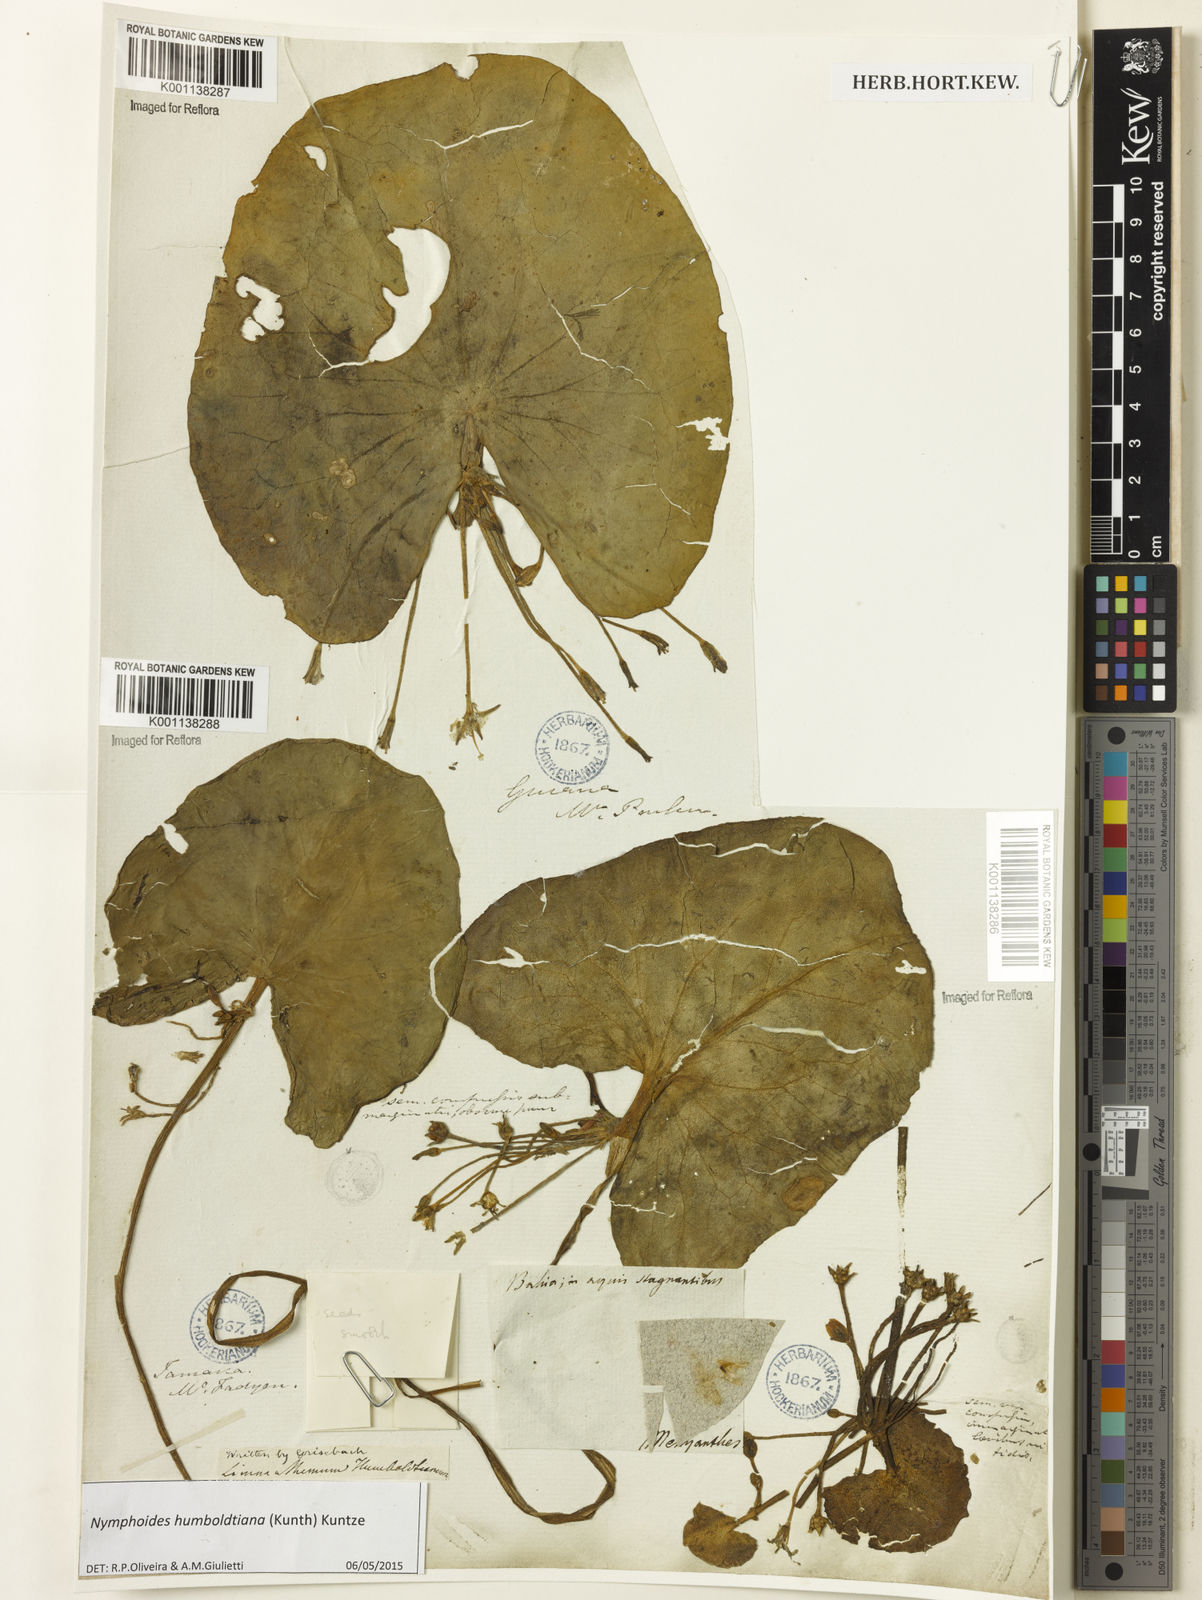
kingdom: Plantae
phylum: Tracheophyta
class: Magnoliopsida
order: Asterales
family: Menyanthaceae
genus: Nymphoides
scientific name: Nymphoides humboldtiana
